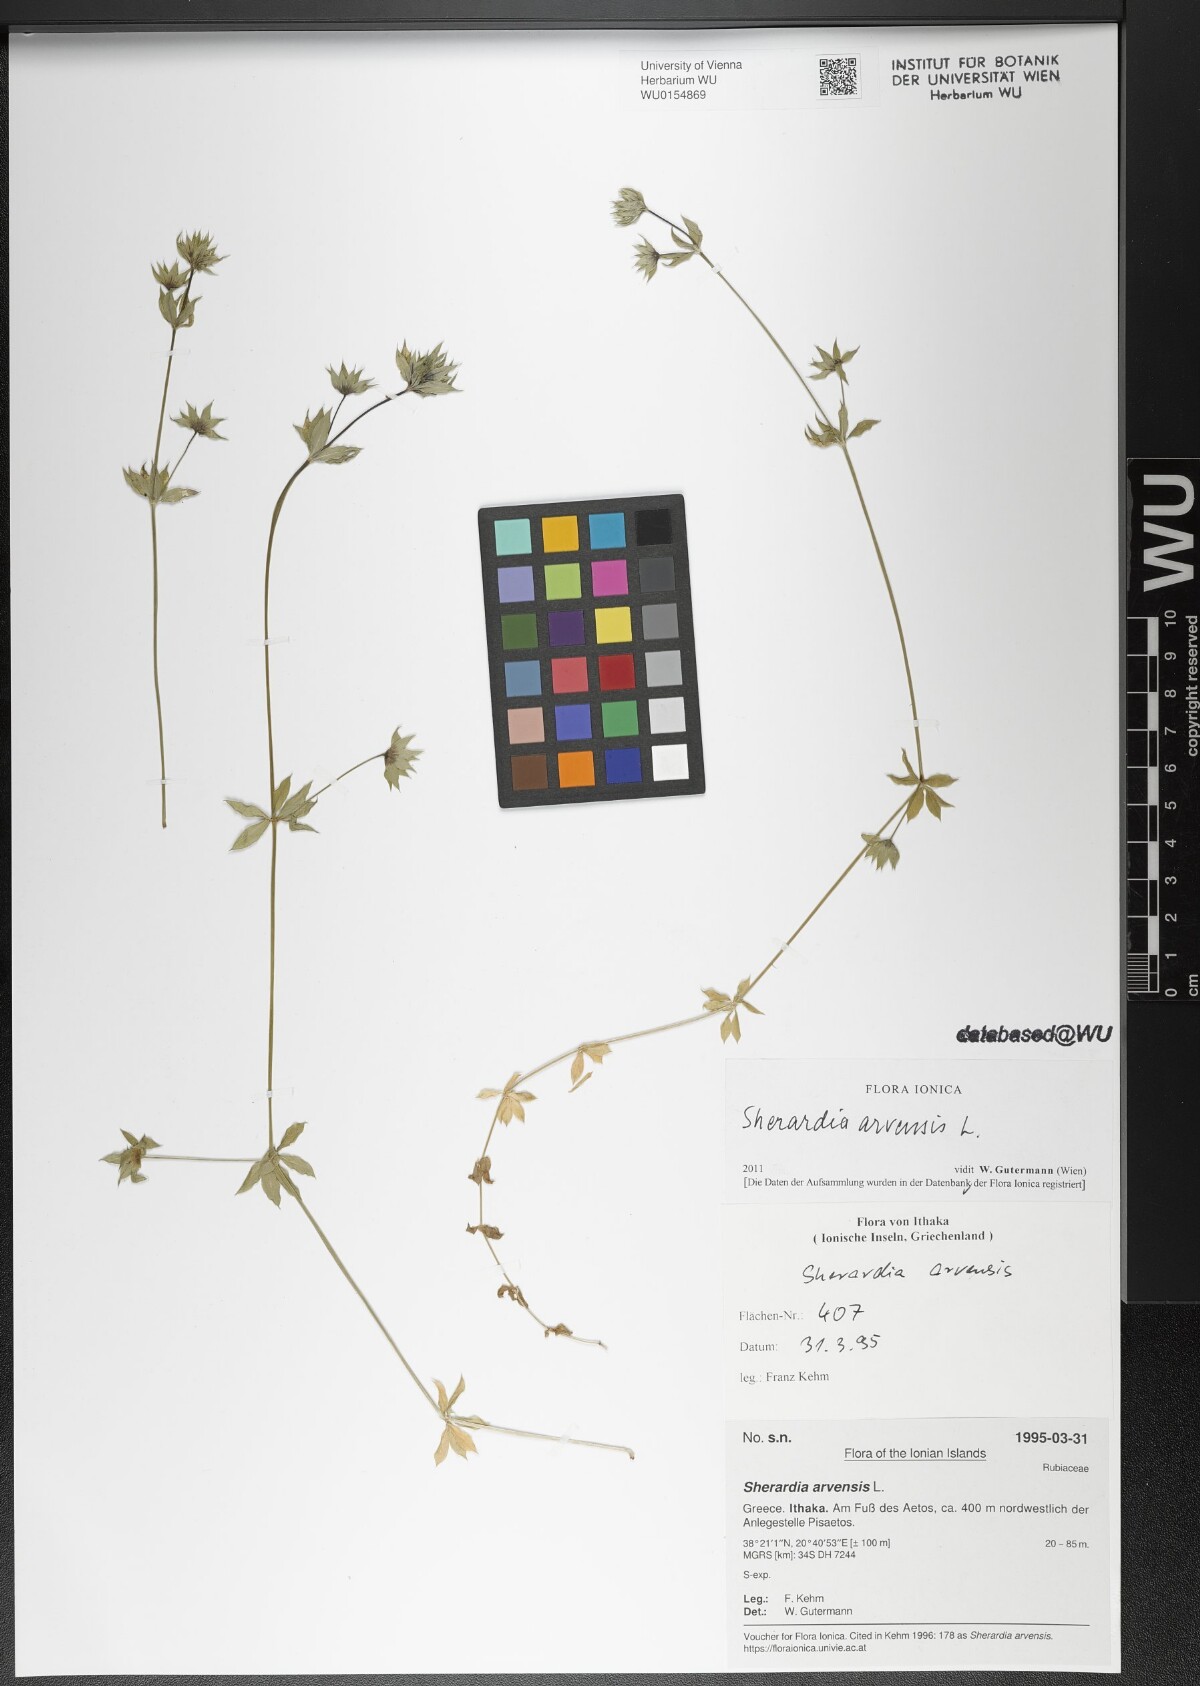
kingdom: Plantae
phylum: Tracheophyta
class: Magnoliopsida
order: Gentianales
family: Rubiaceae
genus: Sherardia
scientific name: Sherardia arvensis
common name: Field madder
